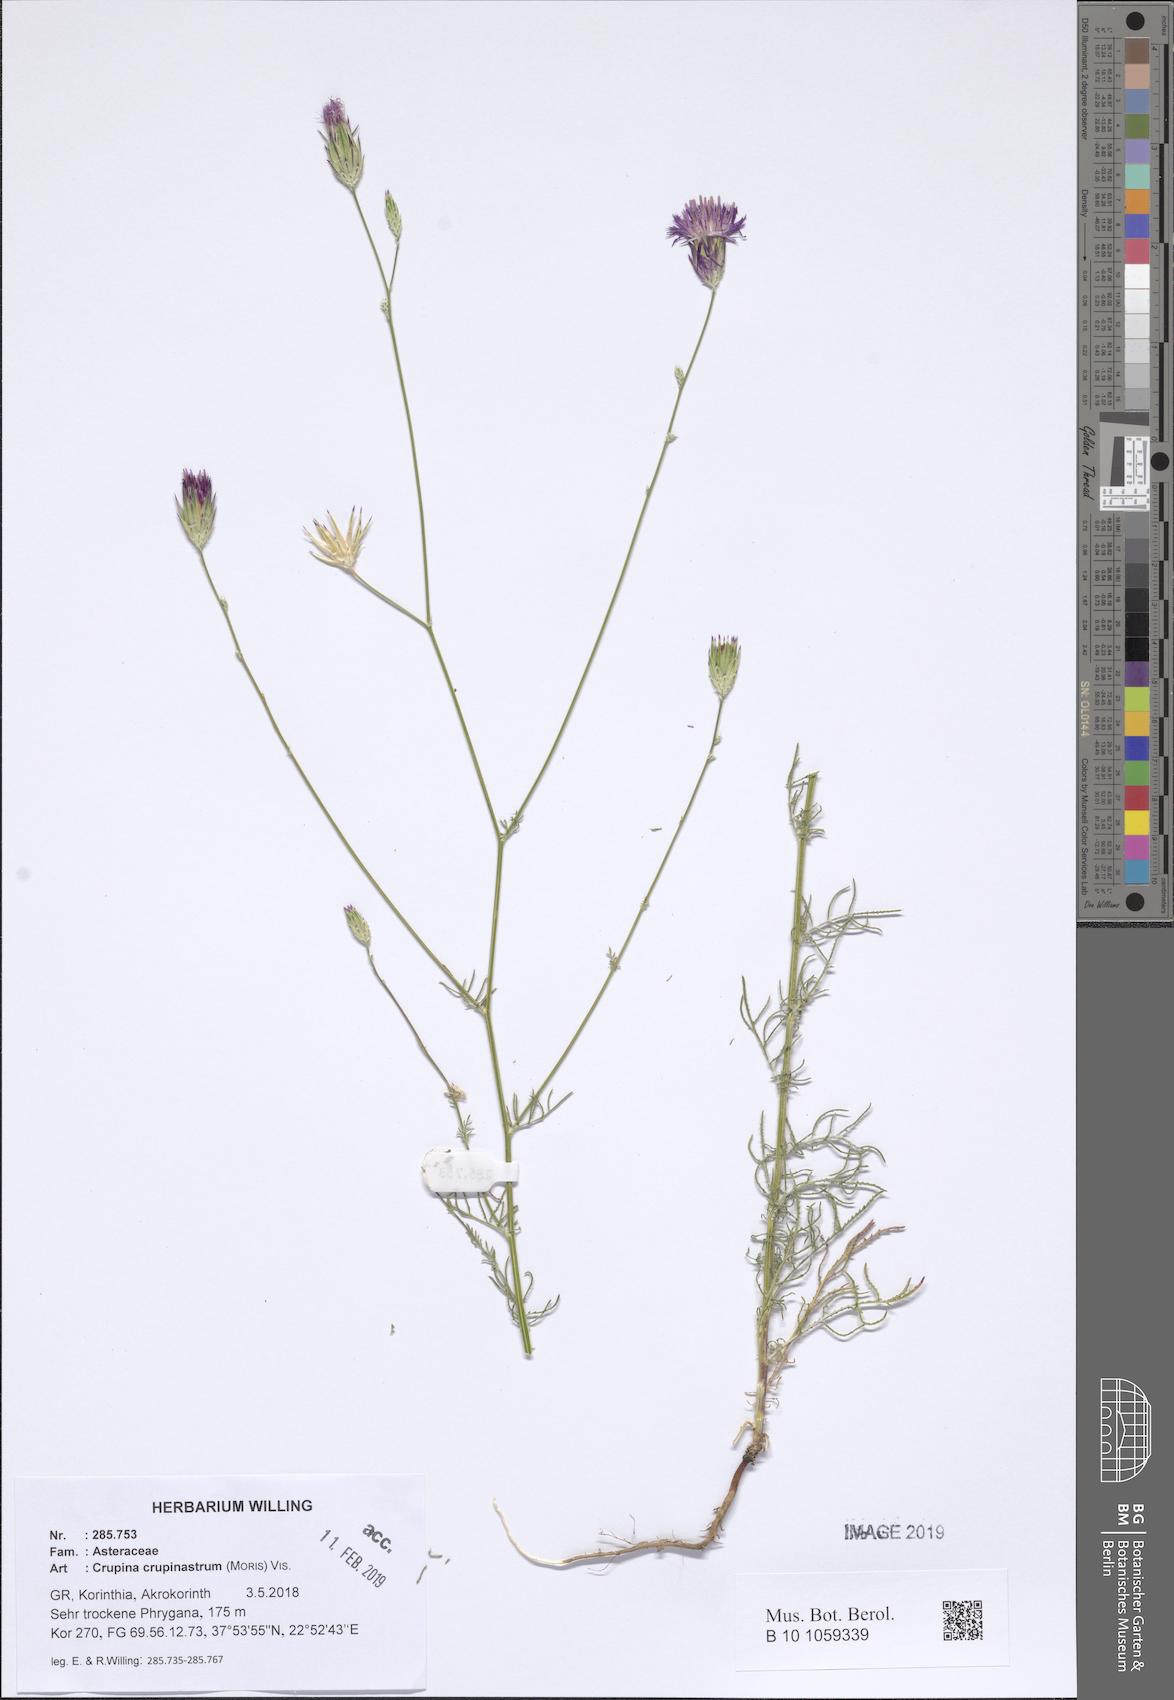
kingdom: Plantae
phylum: Tracheophyta
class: Magnoliopsida
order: Asterales
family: Asteraceae
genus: Crupina
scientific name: Crupina crupinastrum
